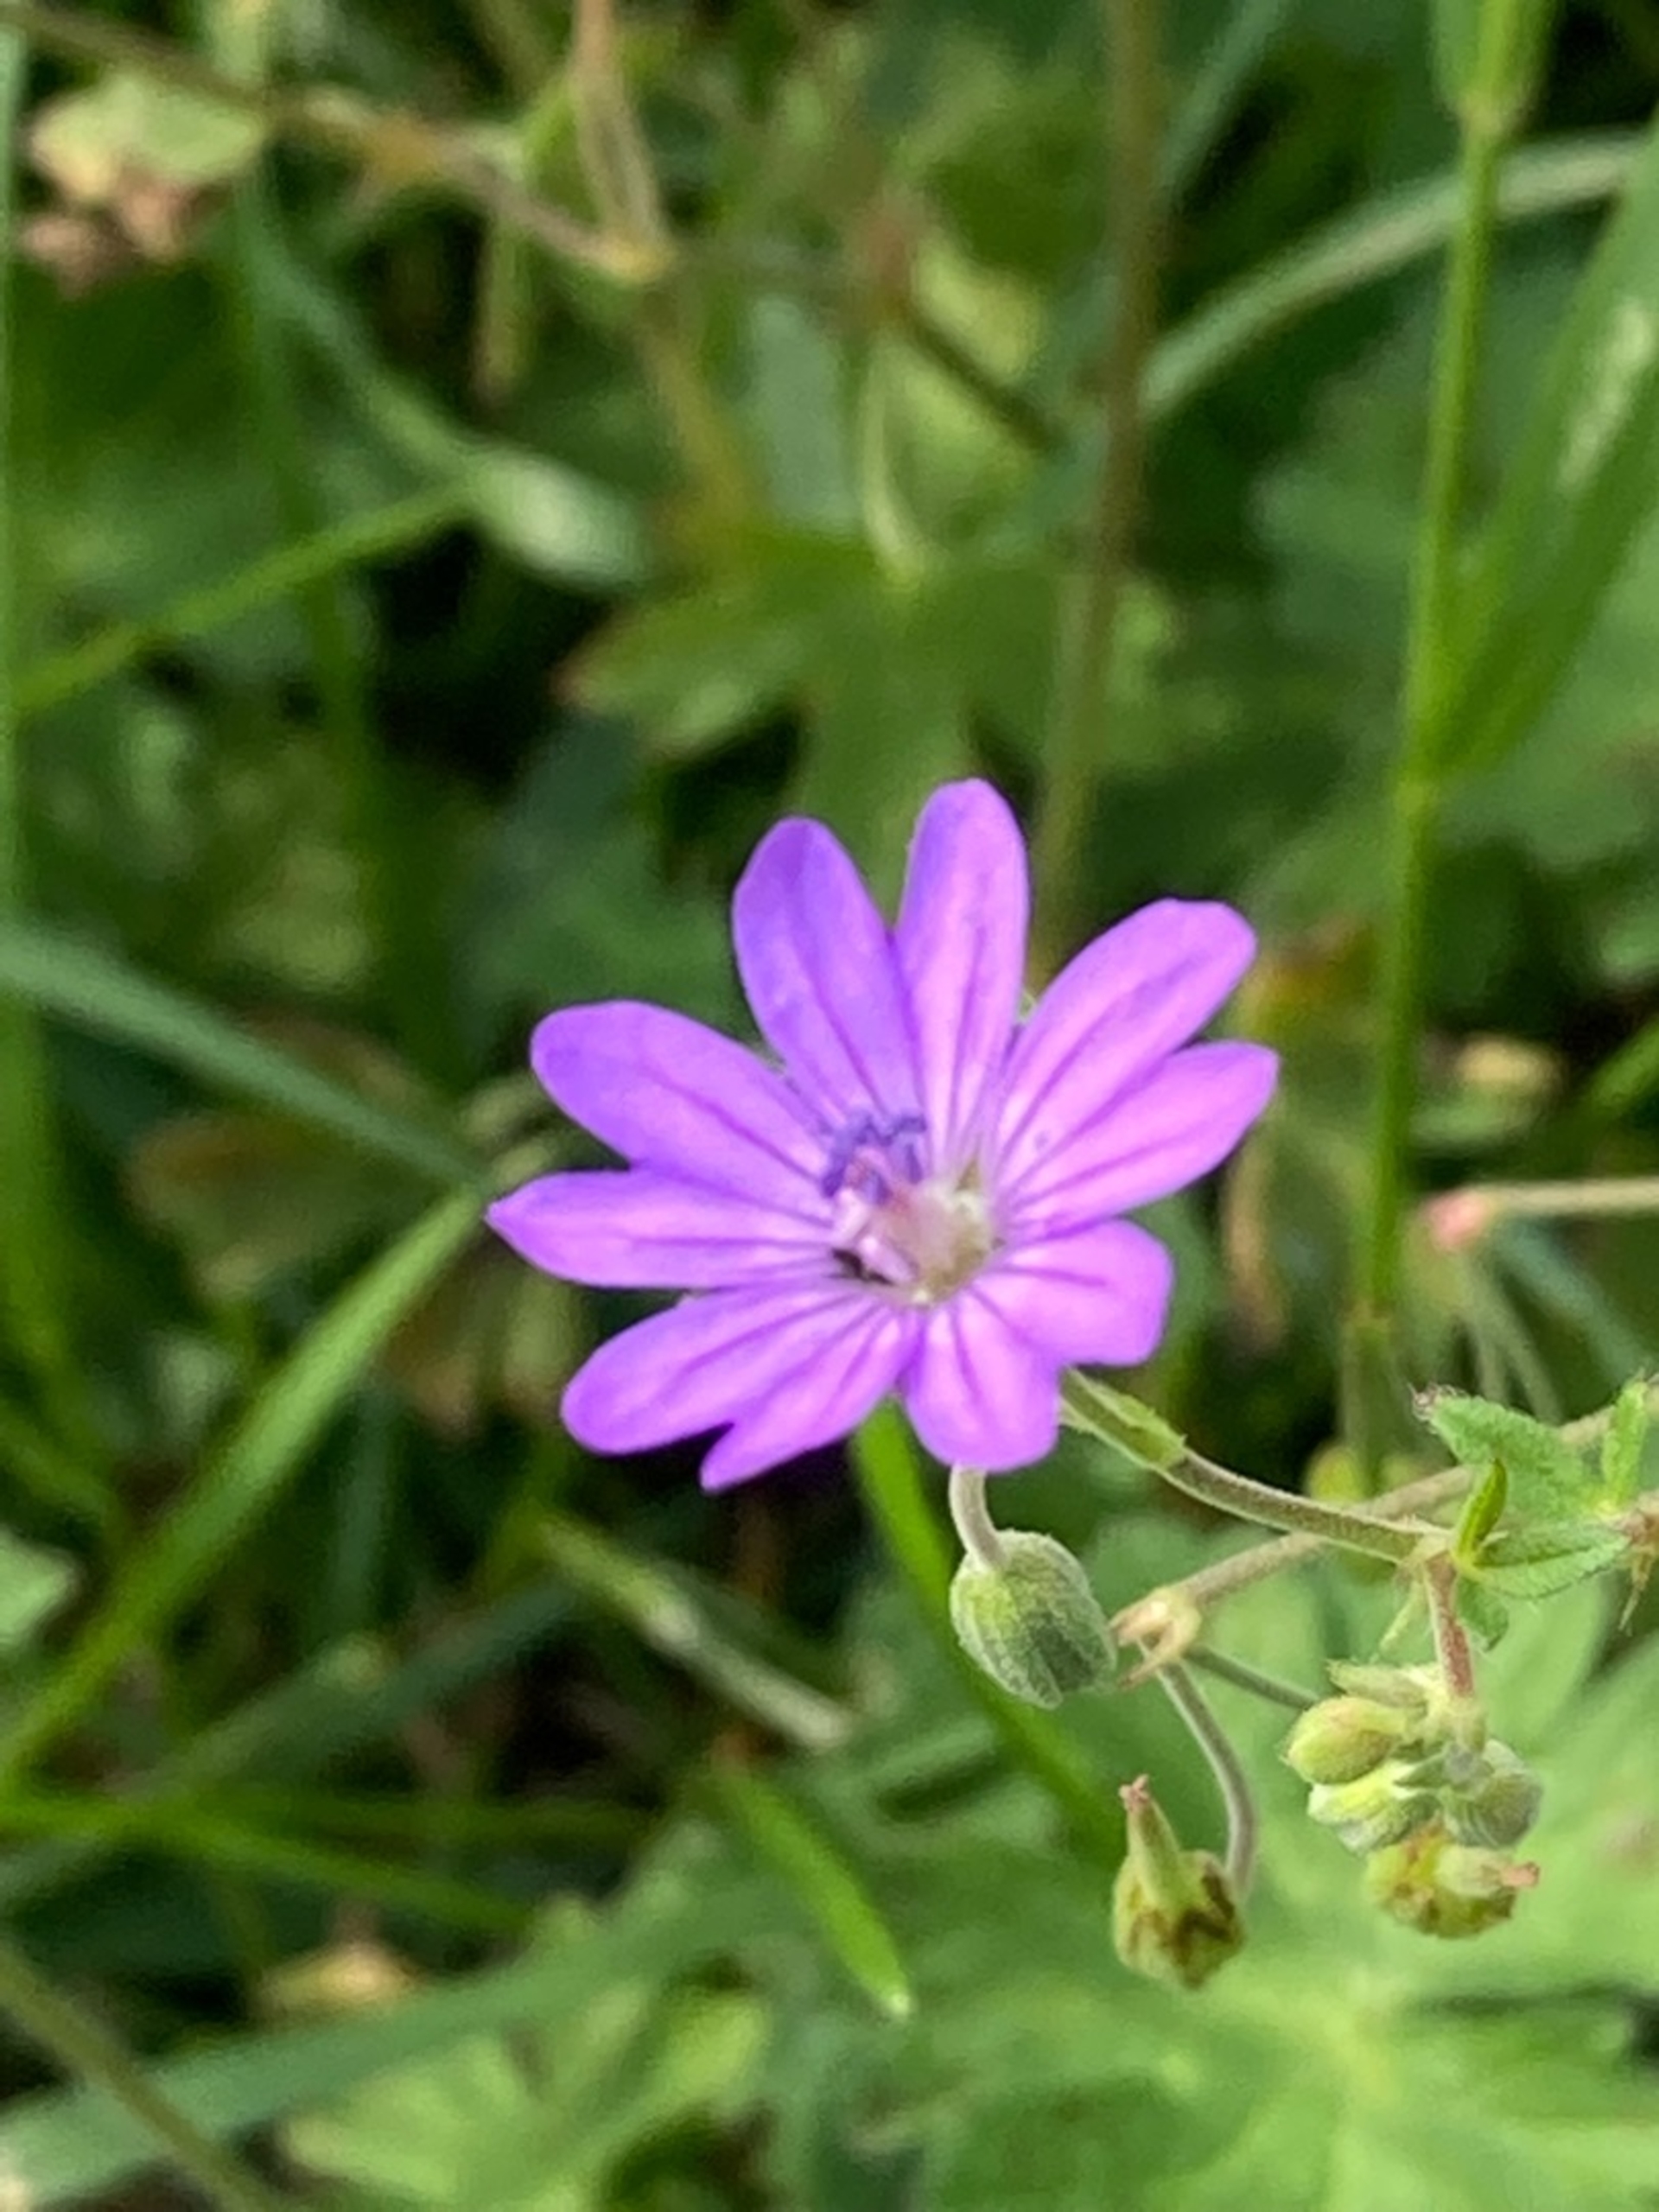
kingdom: Plantae
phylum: Tracheophyta
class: Magnoliopsida
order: Geraniales
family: Geraniaceae
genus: Geranium
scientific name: Geranium pusillum
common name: Liden storkenæb
